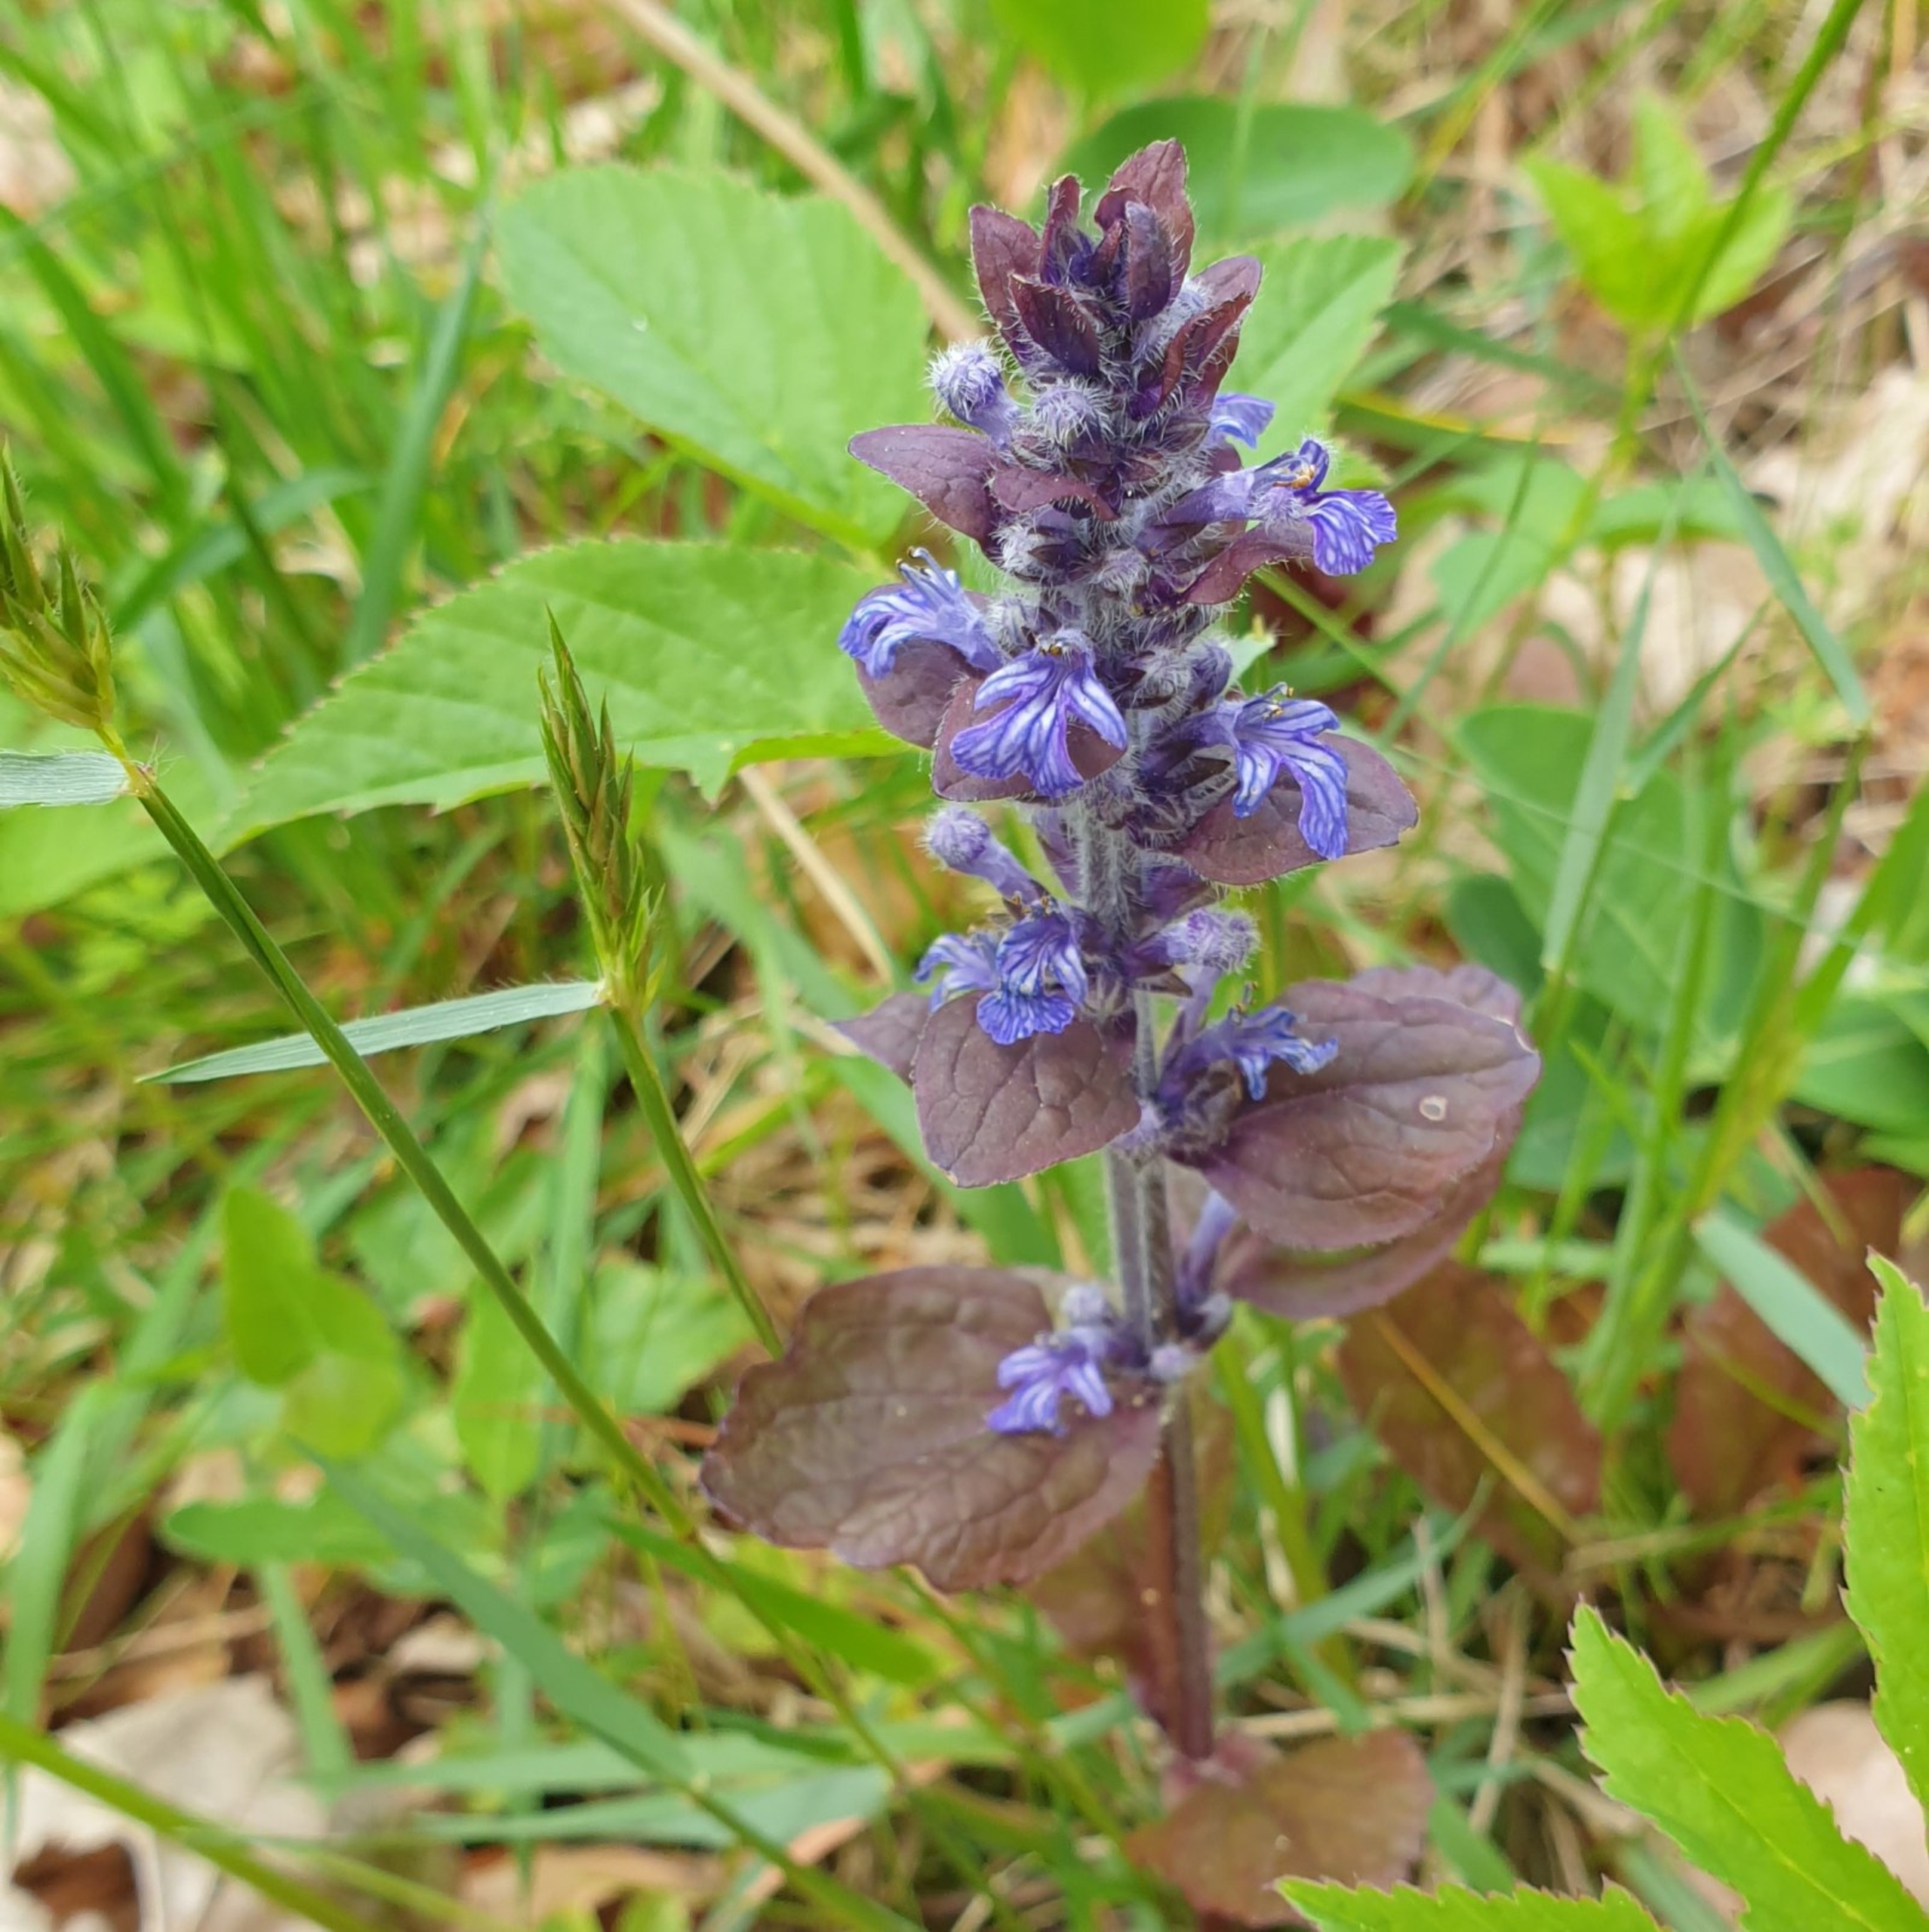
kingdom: Plantae
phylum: Tracheophyta
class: Magnoliopsida
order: Lamiales
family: Lamiaceae
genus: Glechoma
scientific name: Glechoma hederacea
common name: Korsknap
